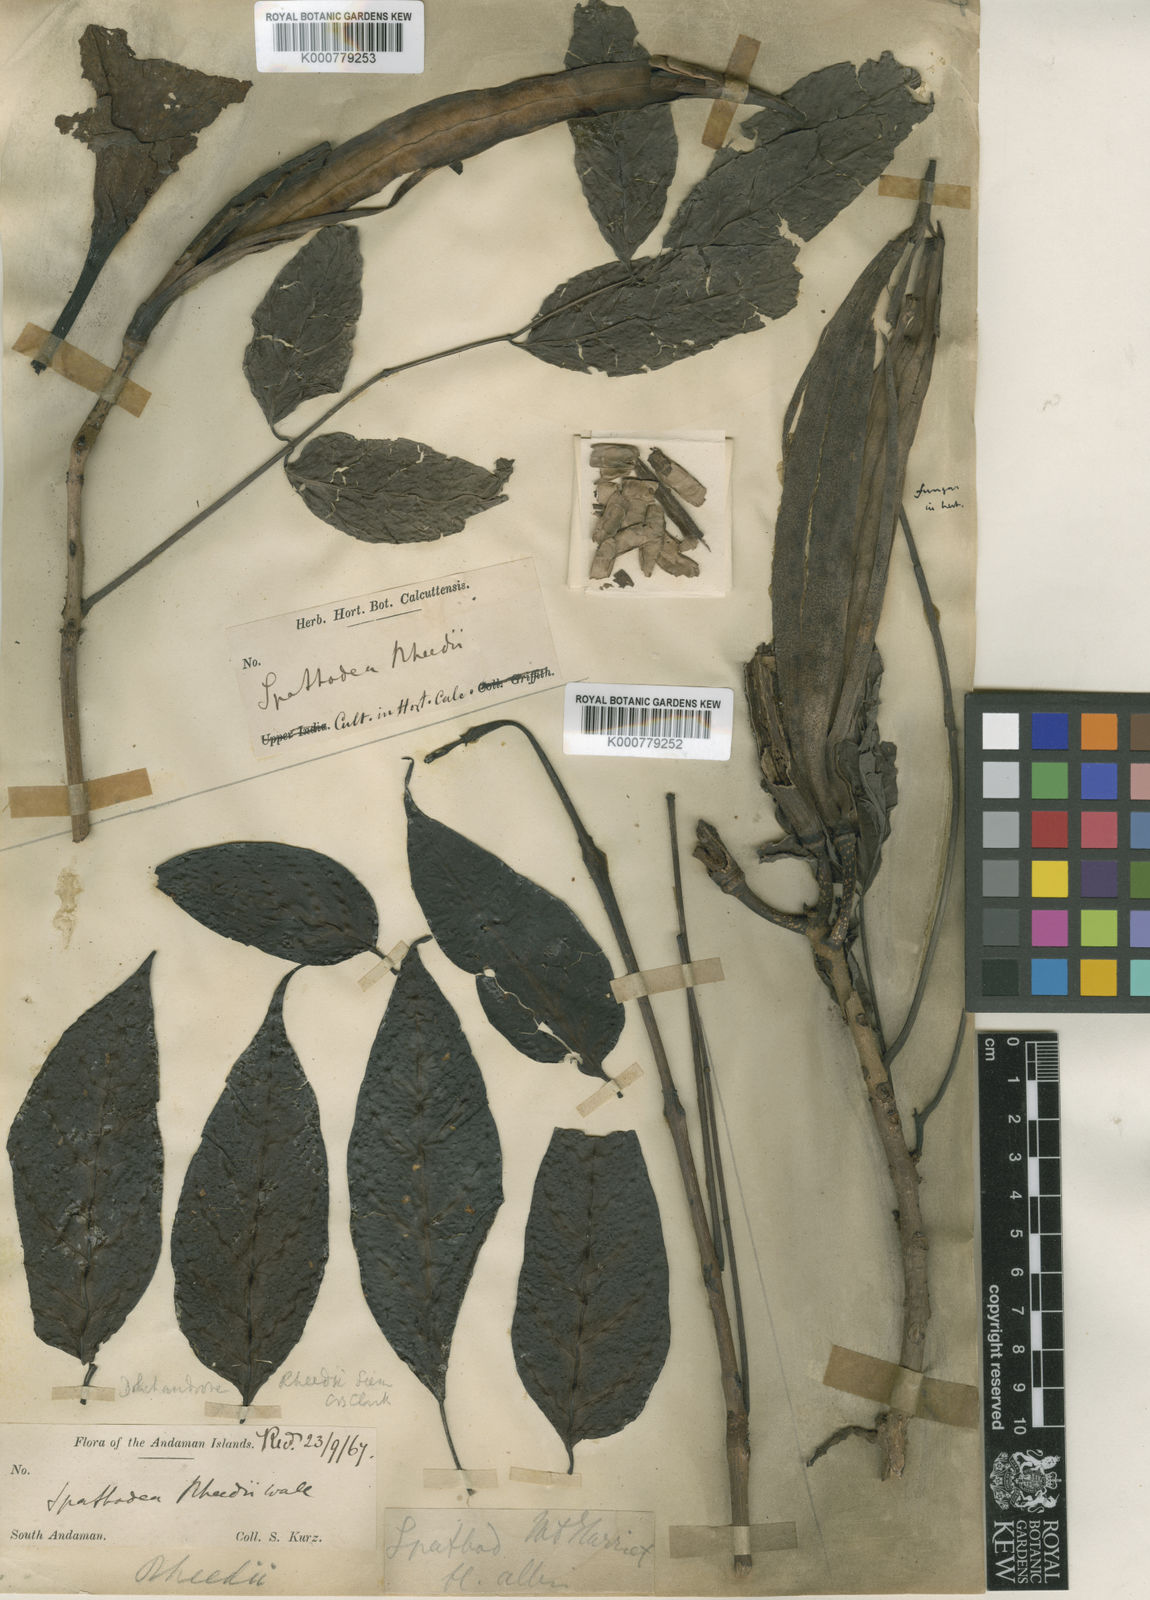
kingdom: Plantae
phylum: Tracheophyta
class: Magnoliopsida
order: Lamiales
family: Bignoniaceae
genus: Dolichandrone
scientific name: Dolichandrone spathacea
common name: Mangrove trumpet-tree
